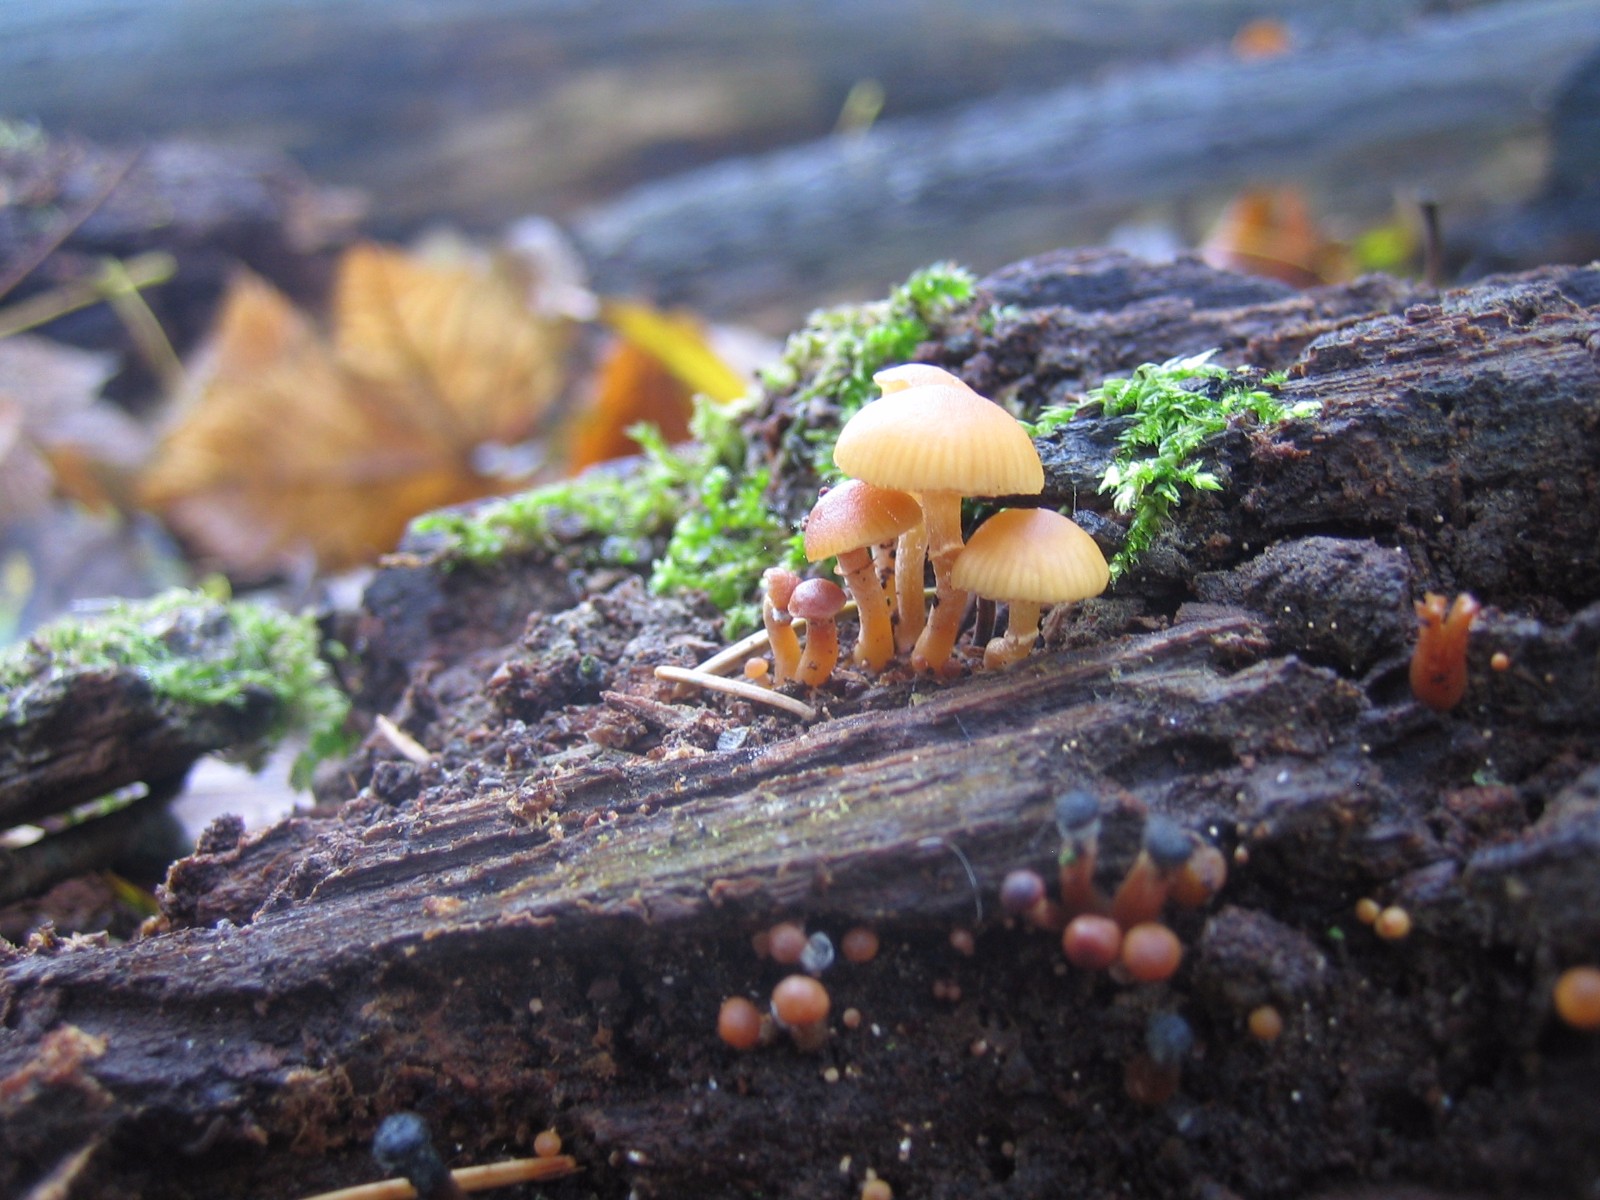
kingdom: Fungi
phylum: Basidiomycota
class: Agaricomycetes
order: Agaricales
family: Hymenogastraceae
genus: Galerina
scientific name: Galerina marginata
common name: randbæltet hjelmhat
